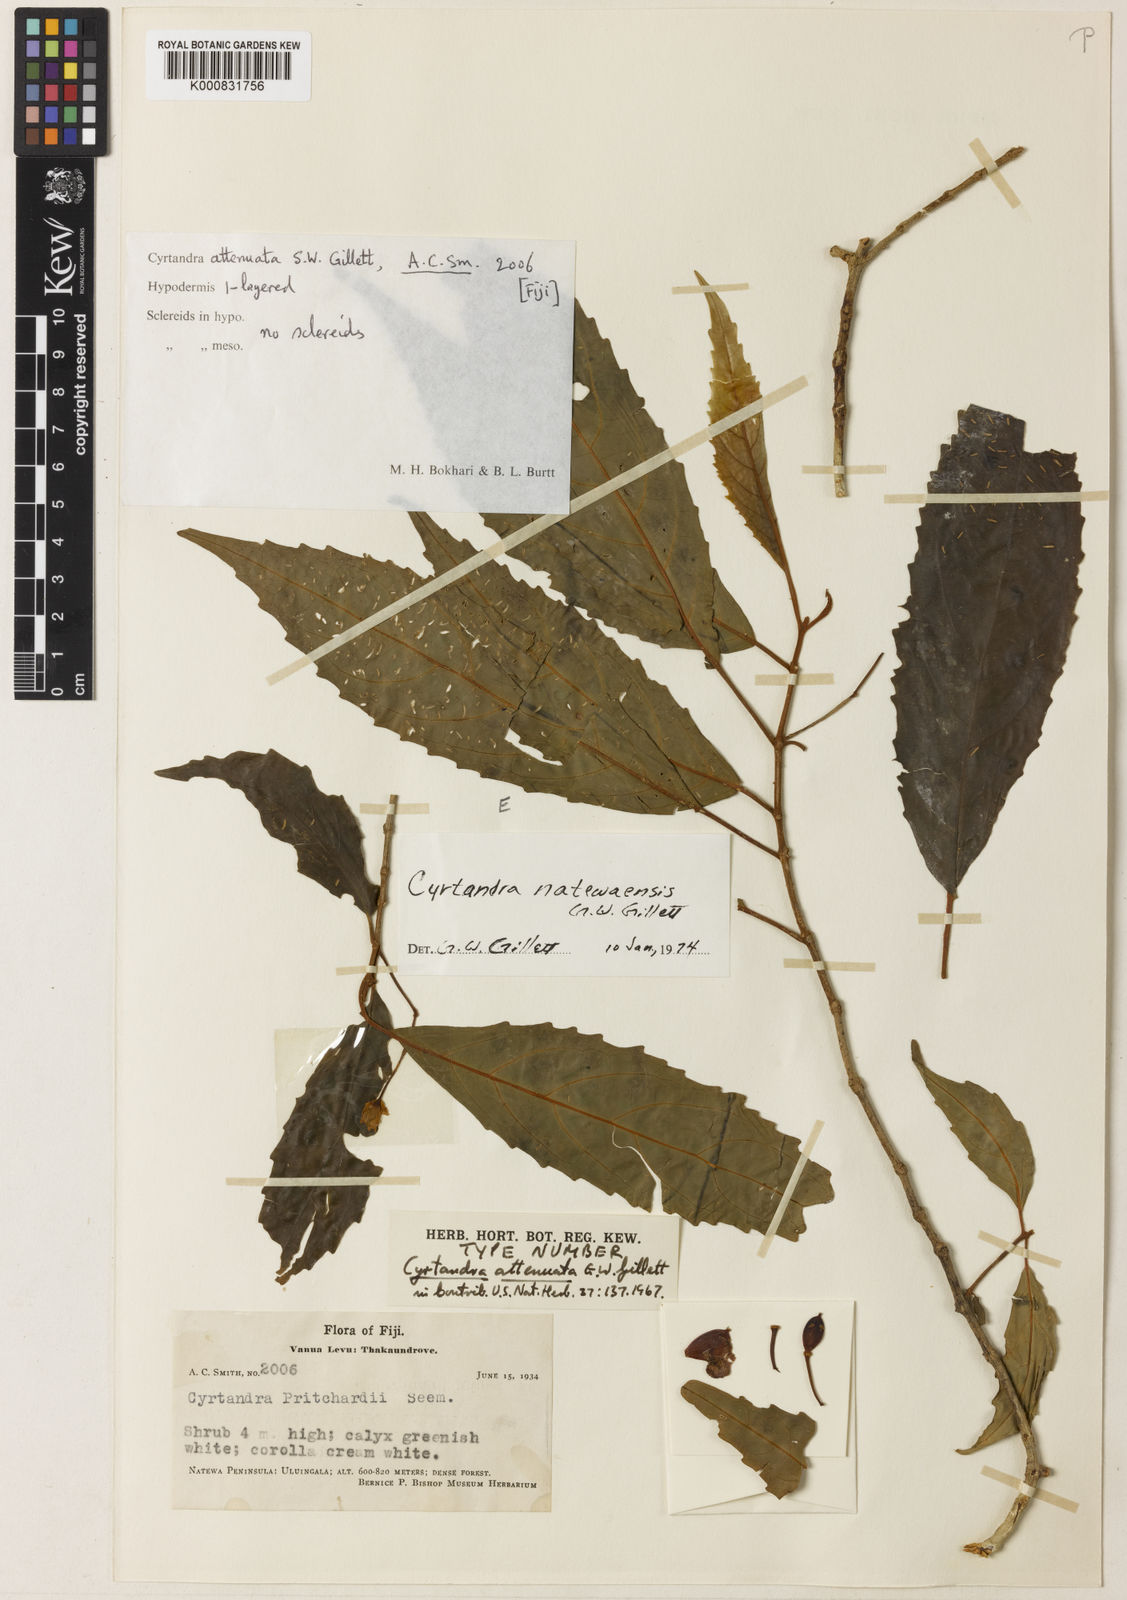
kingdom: Plantae
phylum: Tracheophyta
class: Magnoliopsida
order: Lamiales
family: Gesneriaceae
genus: Cyrtandra
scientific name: Cyrtandra natewaensis
